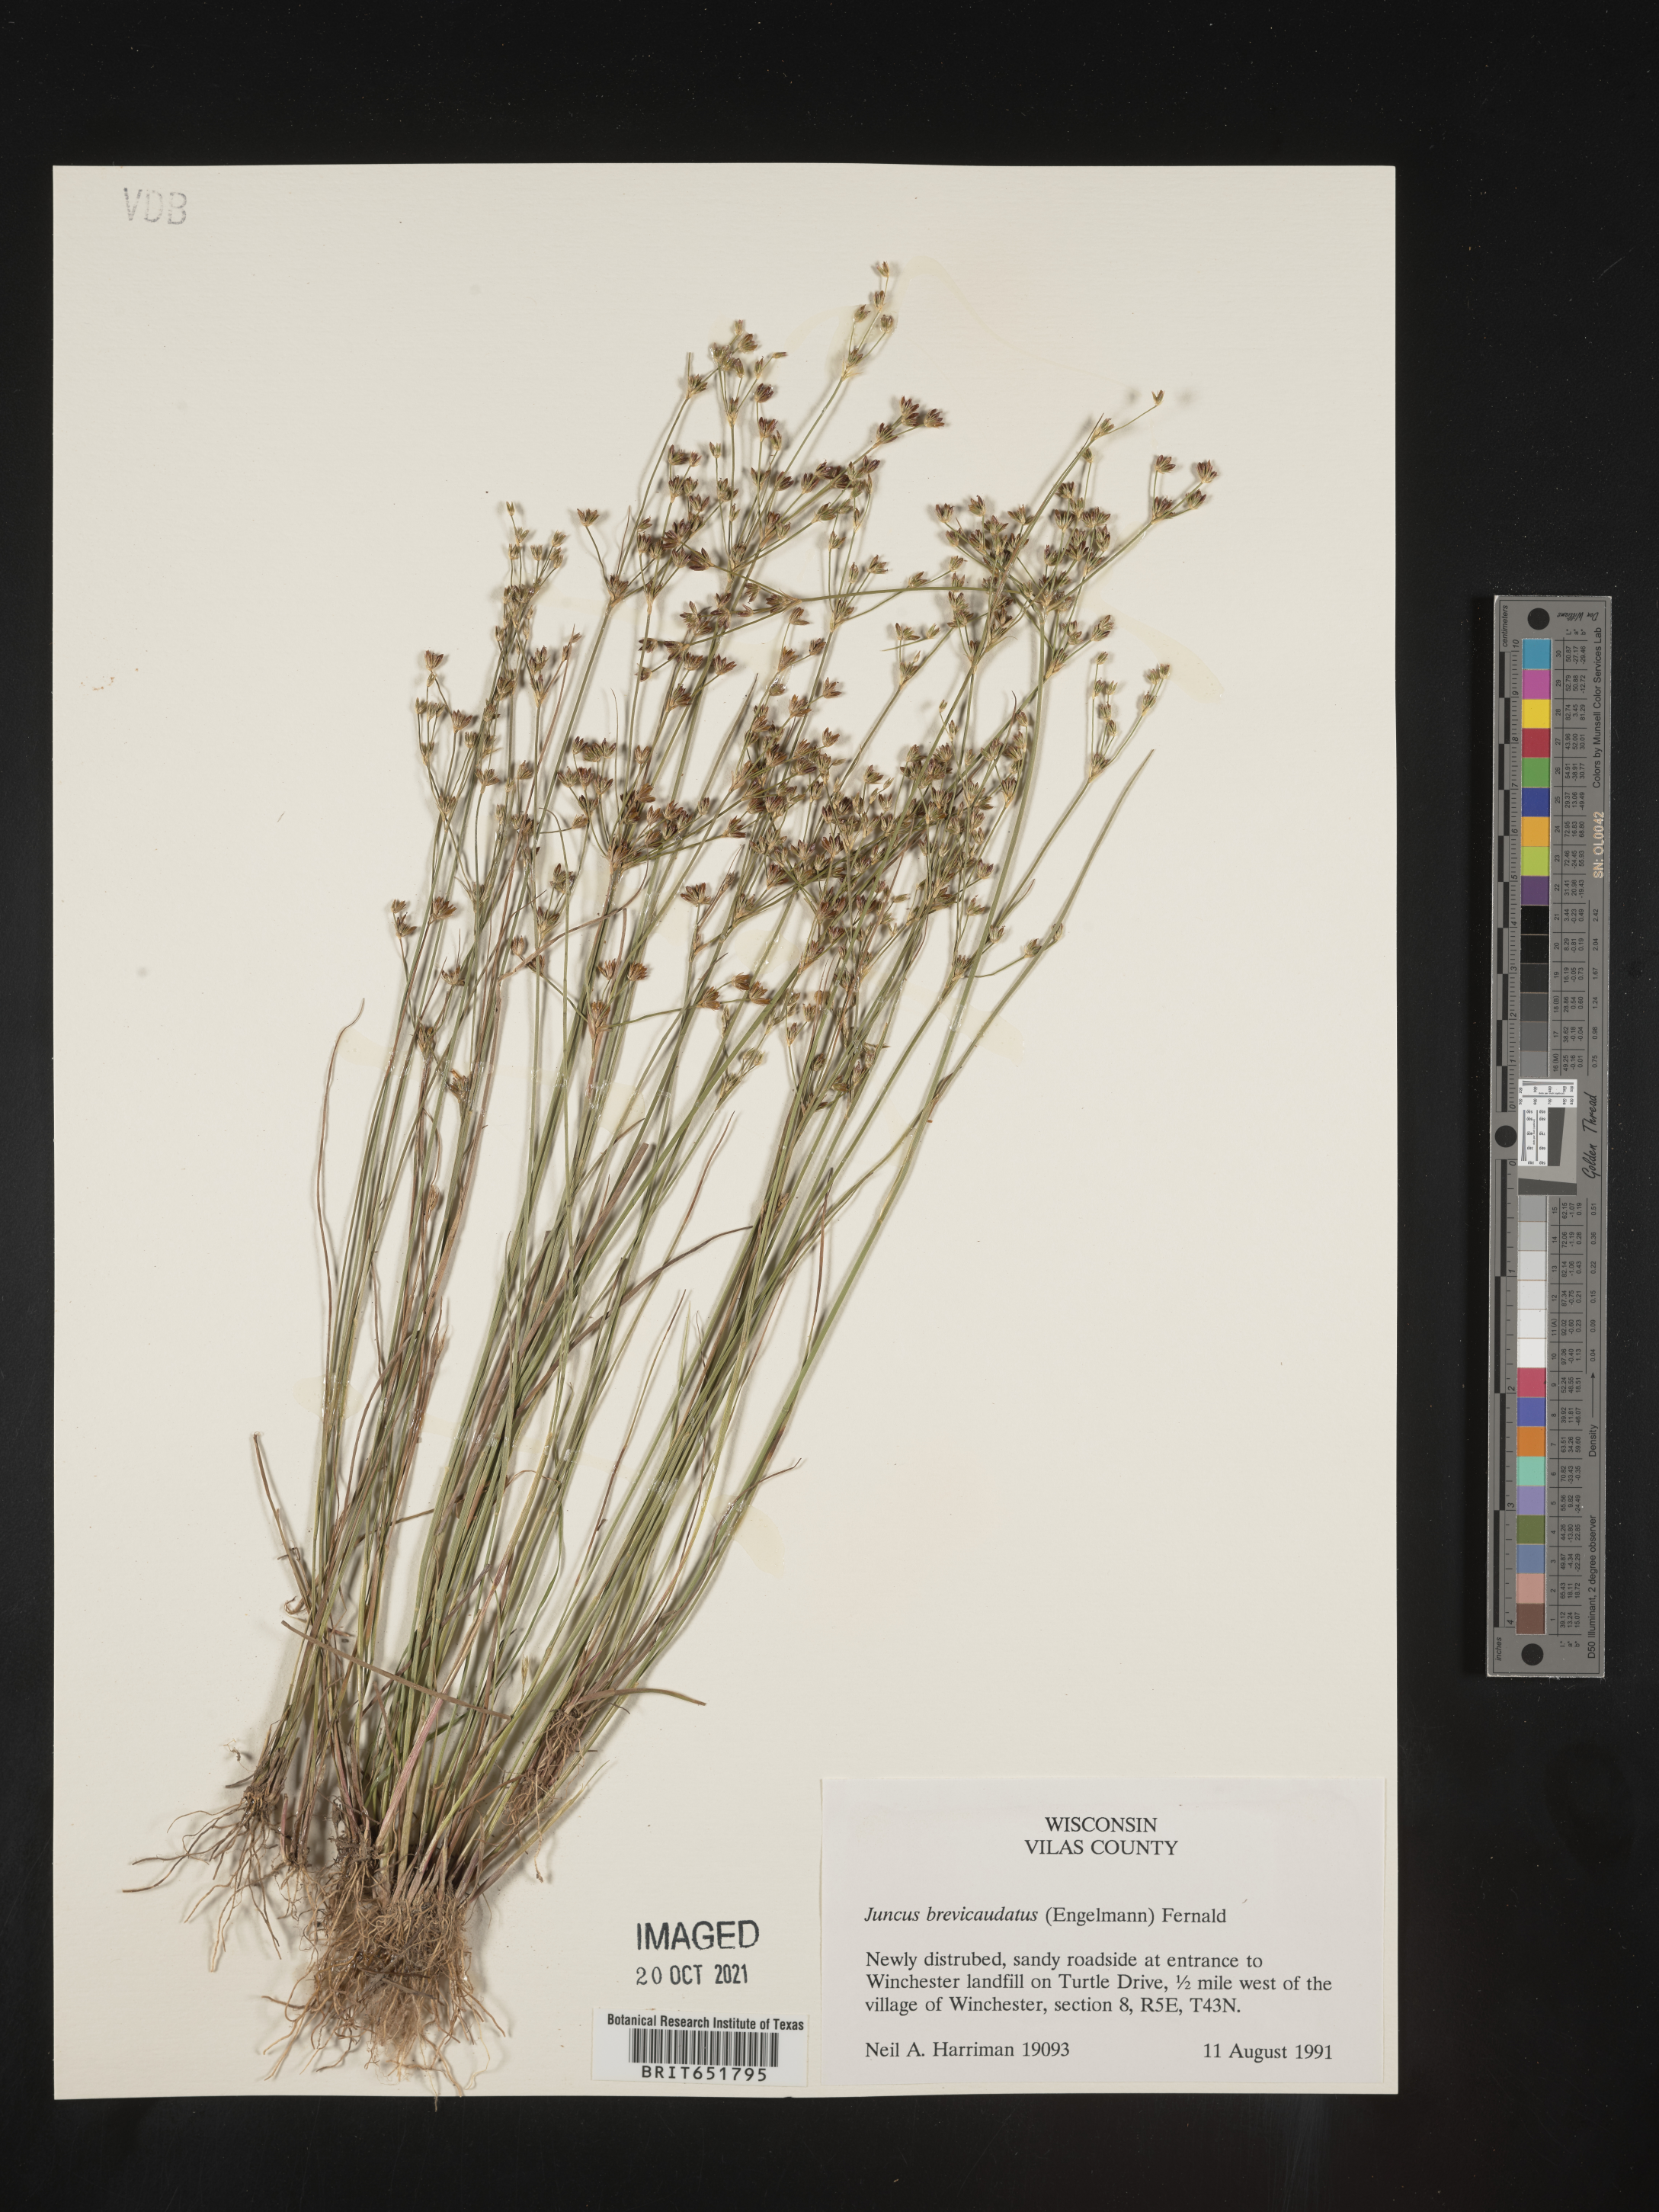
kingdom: Plantae
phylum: Tracheophyta
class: Liliopsida
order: Poales
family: Juncaceae
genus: Juncus
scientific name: Juncus brevicaudatus
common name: Narrow-panicle rush
